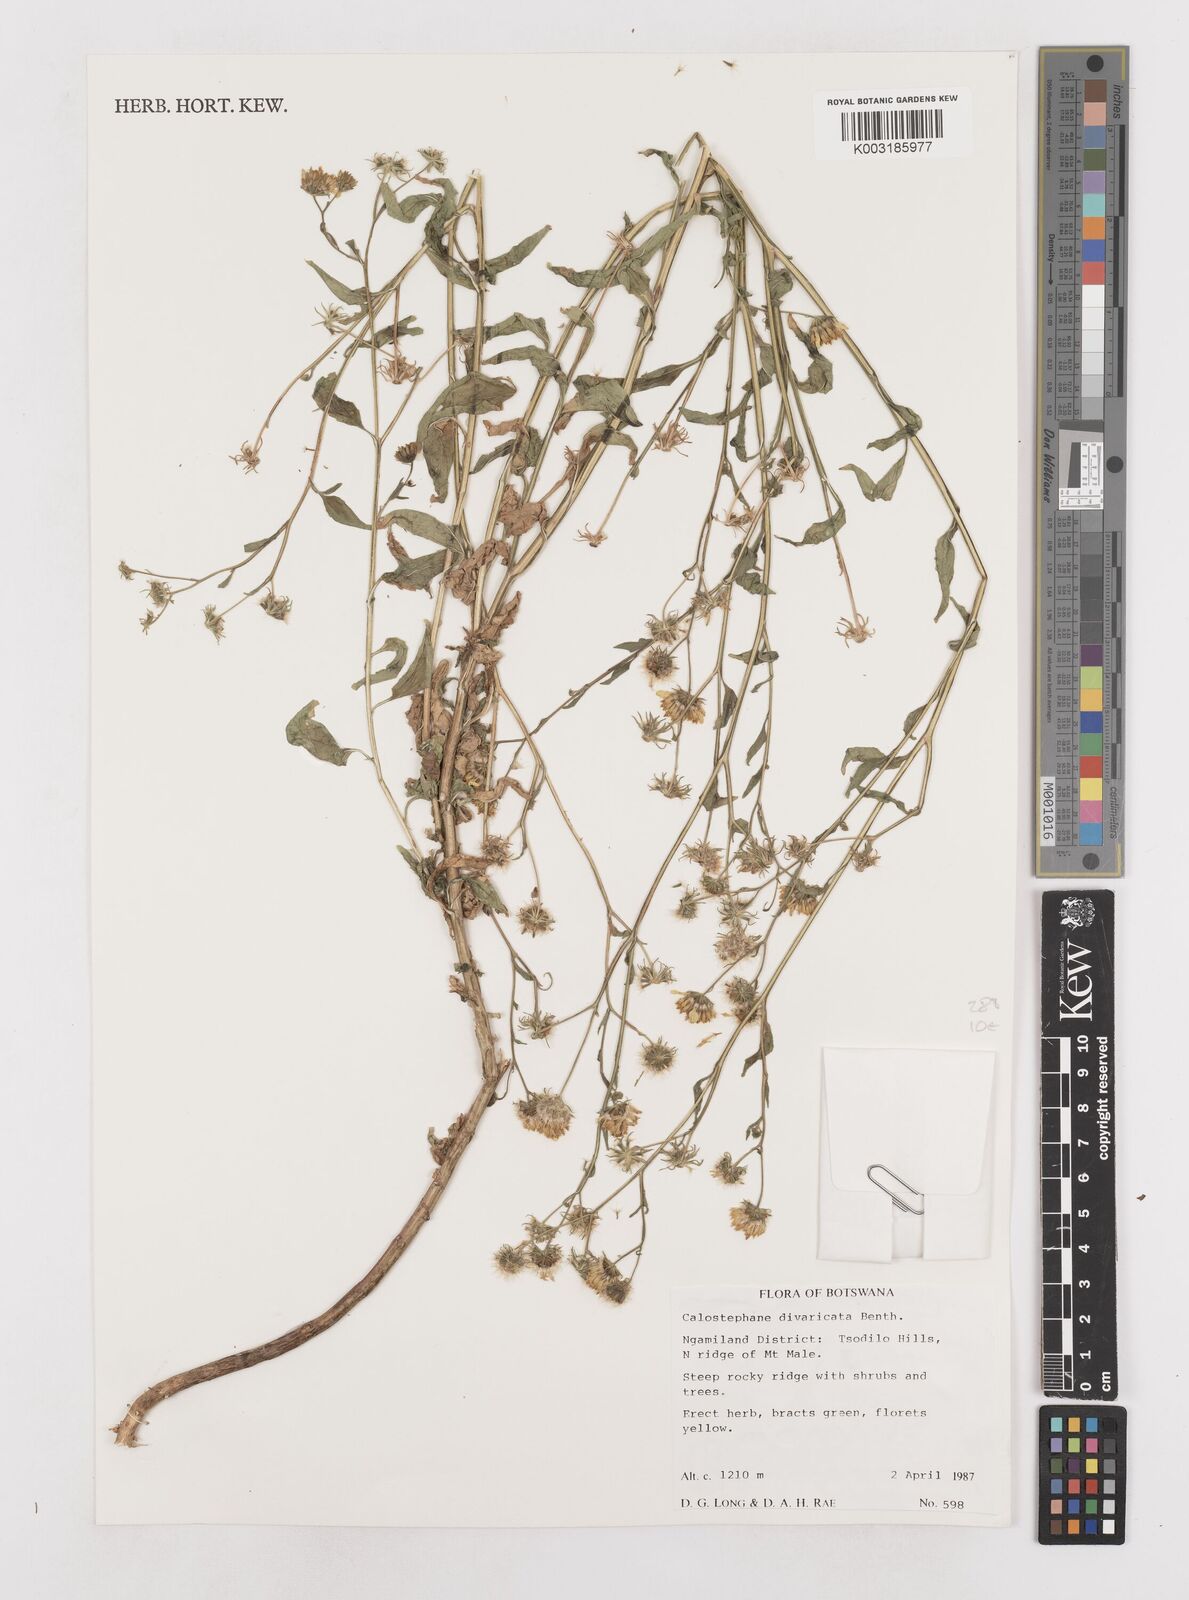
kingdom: Plantae
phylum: Tracheophyta
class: Magnoliopsida
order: Asterales
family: Asteraceae
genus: Calostephane
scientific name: Calostephane divaricata
